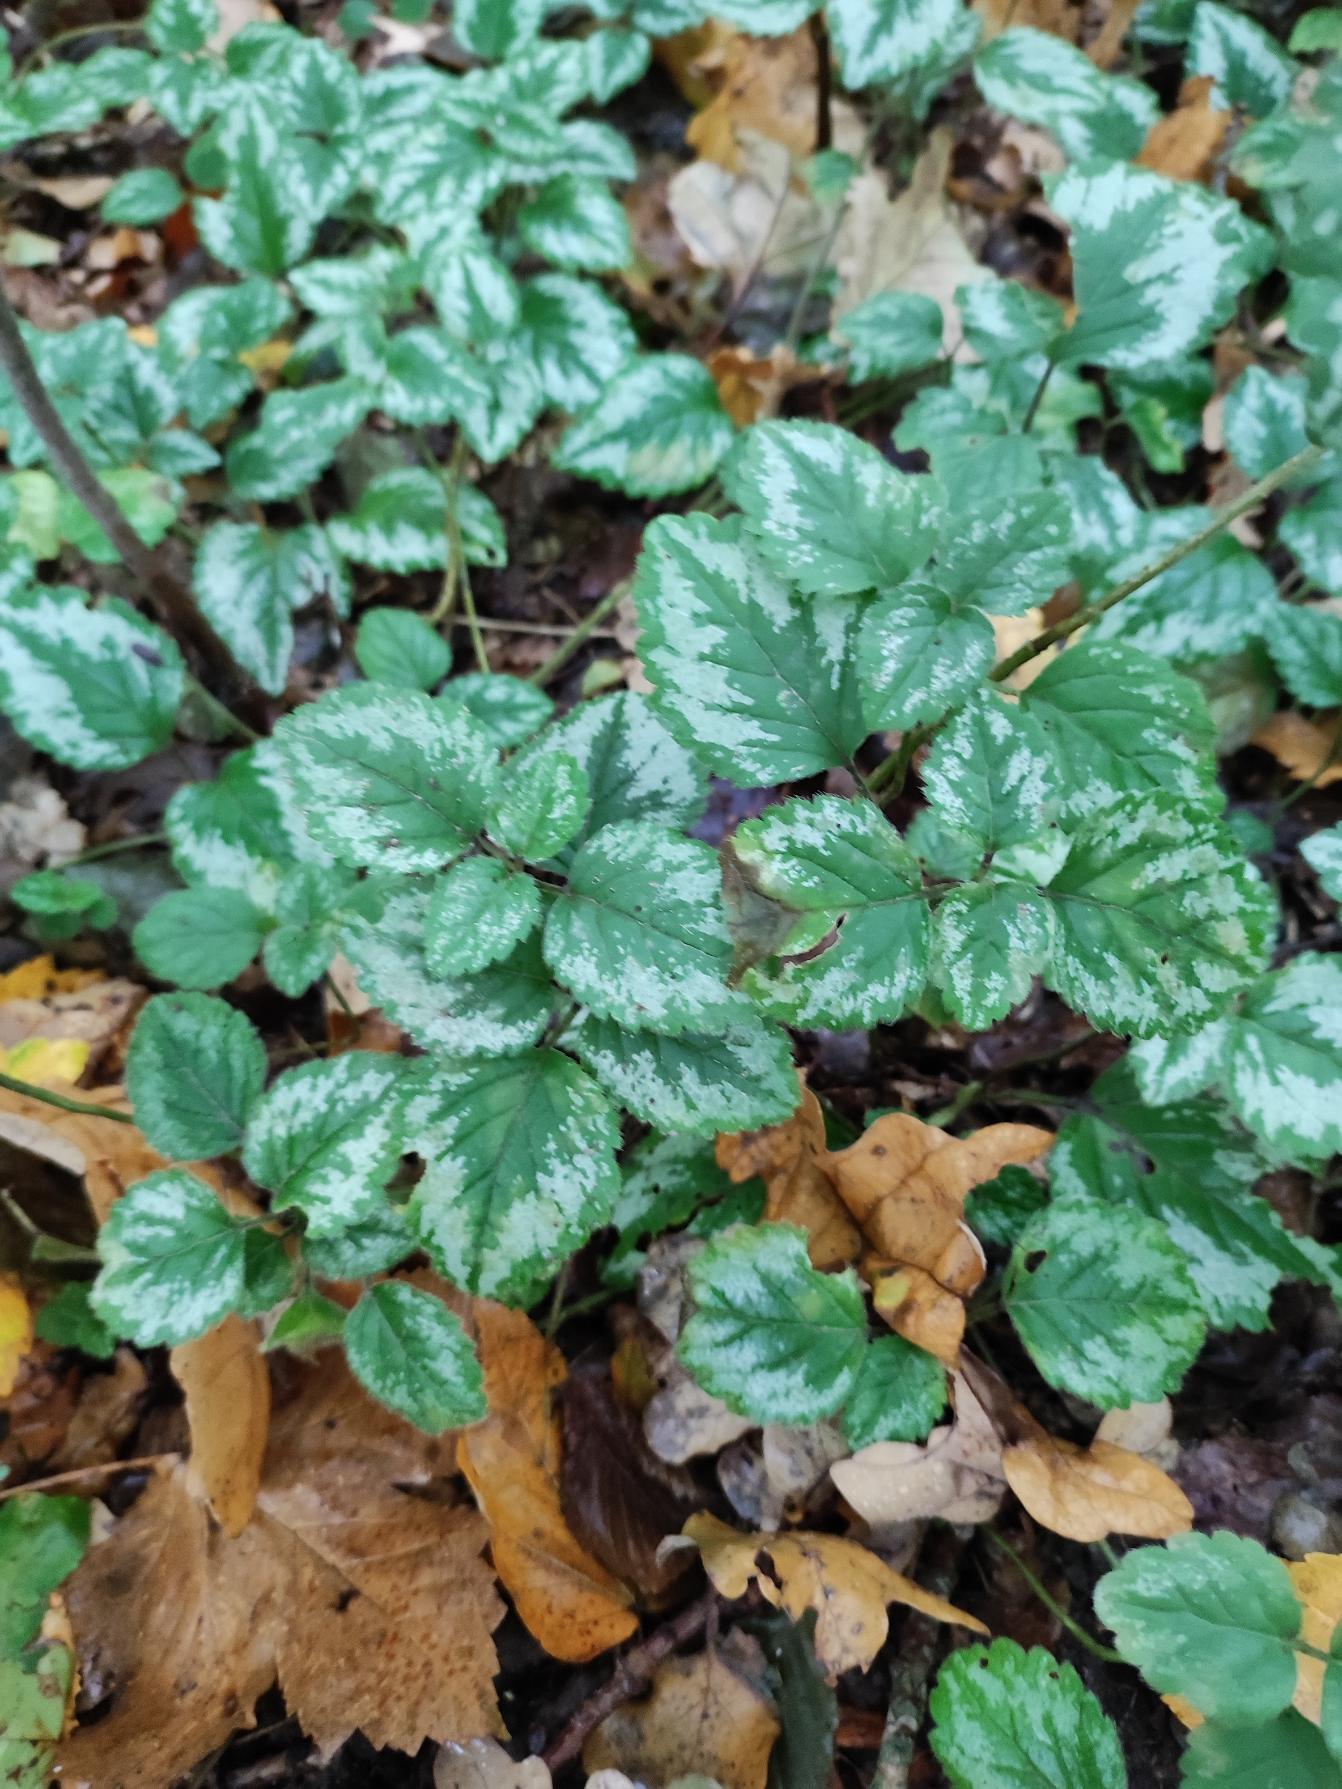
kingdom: Plantae
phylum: Tracheophyta
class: Magnoliopsida
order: Lamiales
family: Lamiaceae
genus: Lamium
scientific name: Lamium galeobdolon
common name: Have-guldnælde
